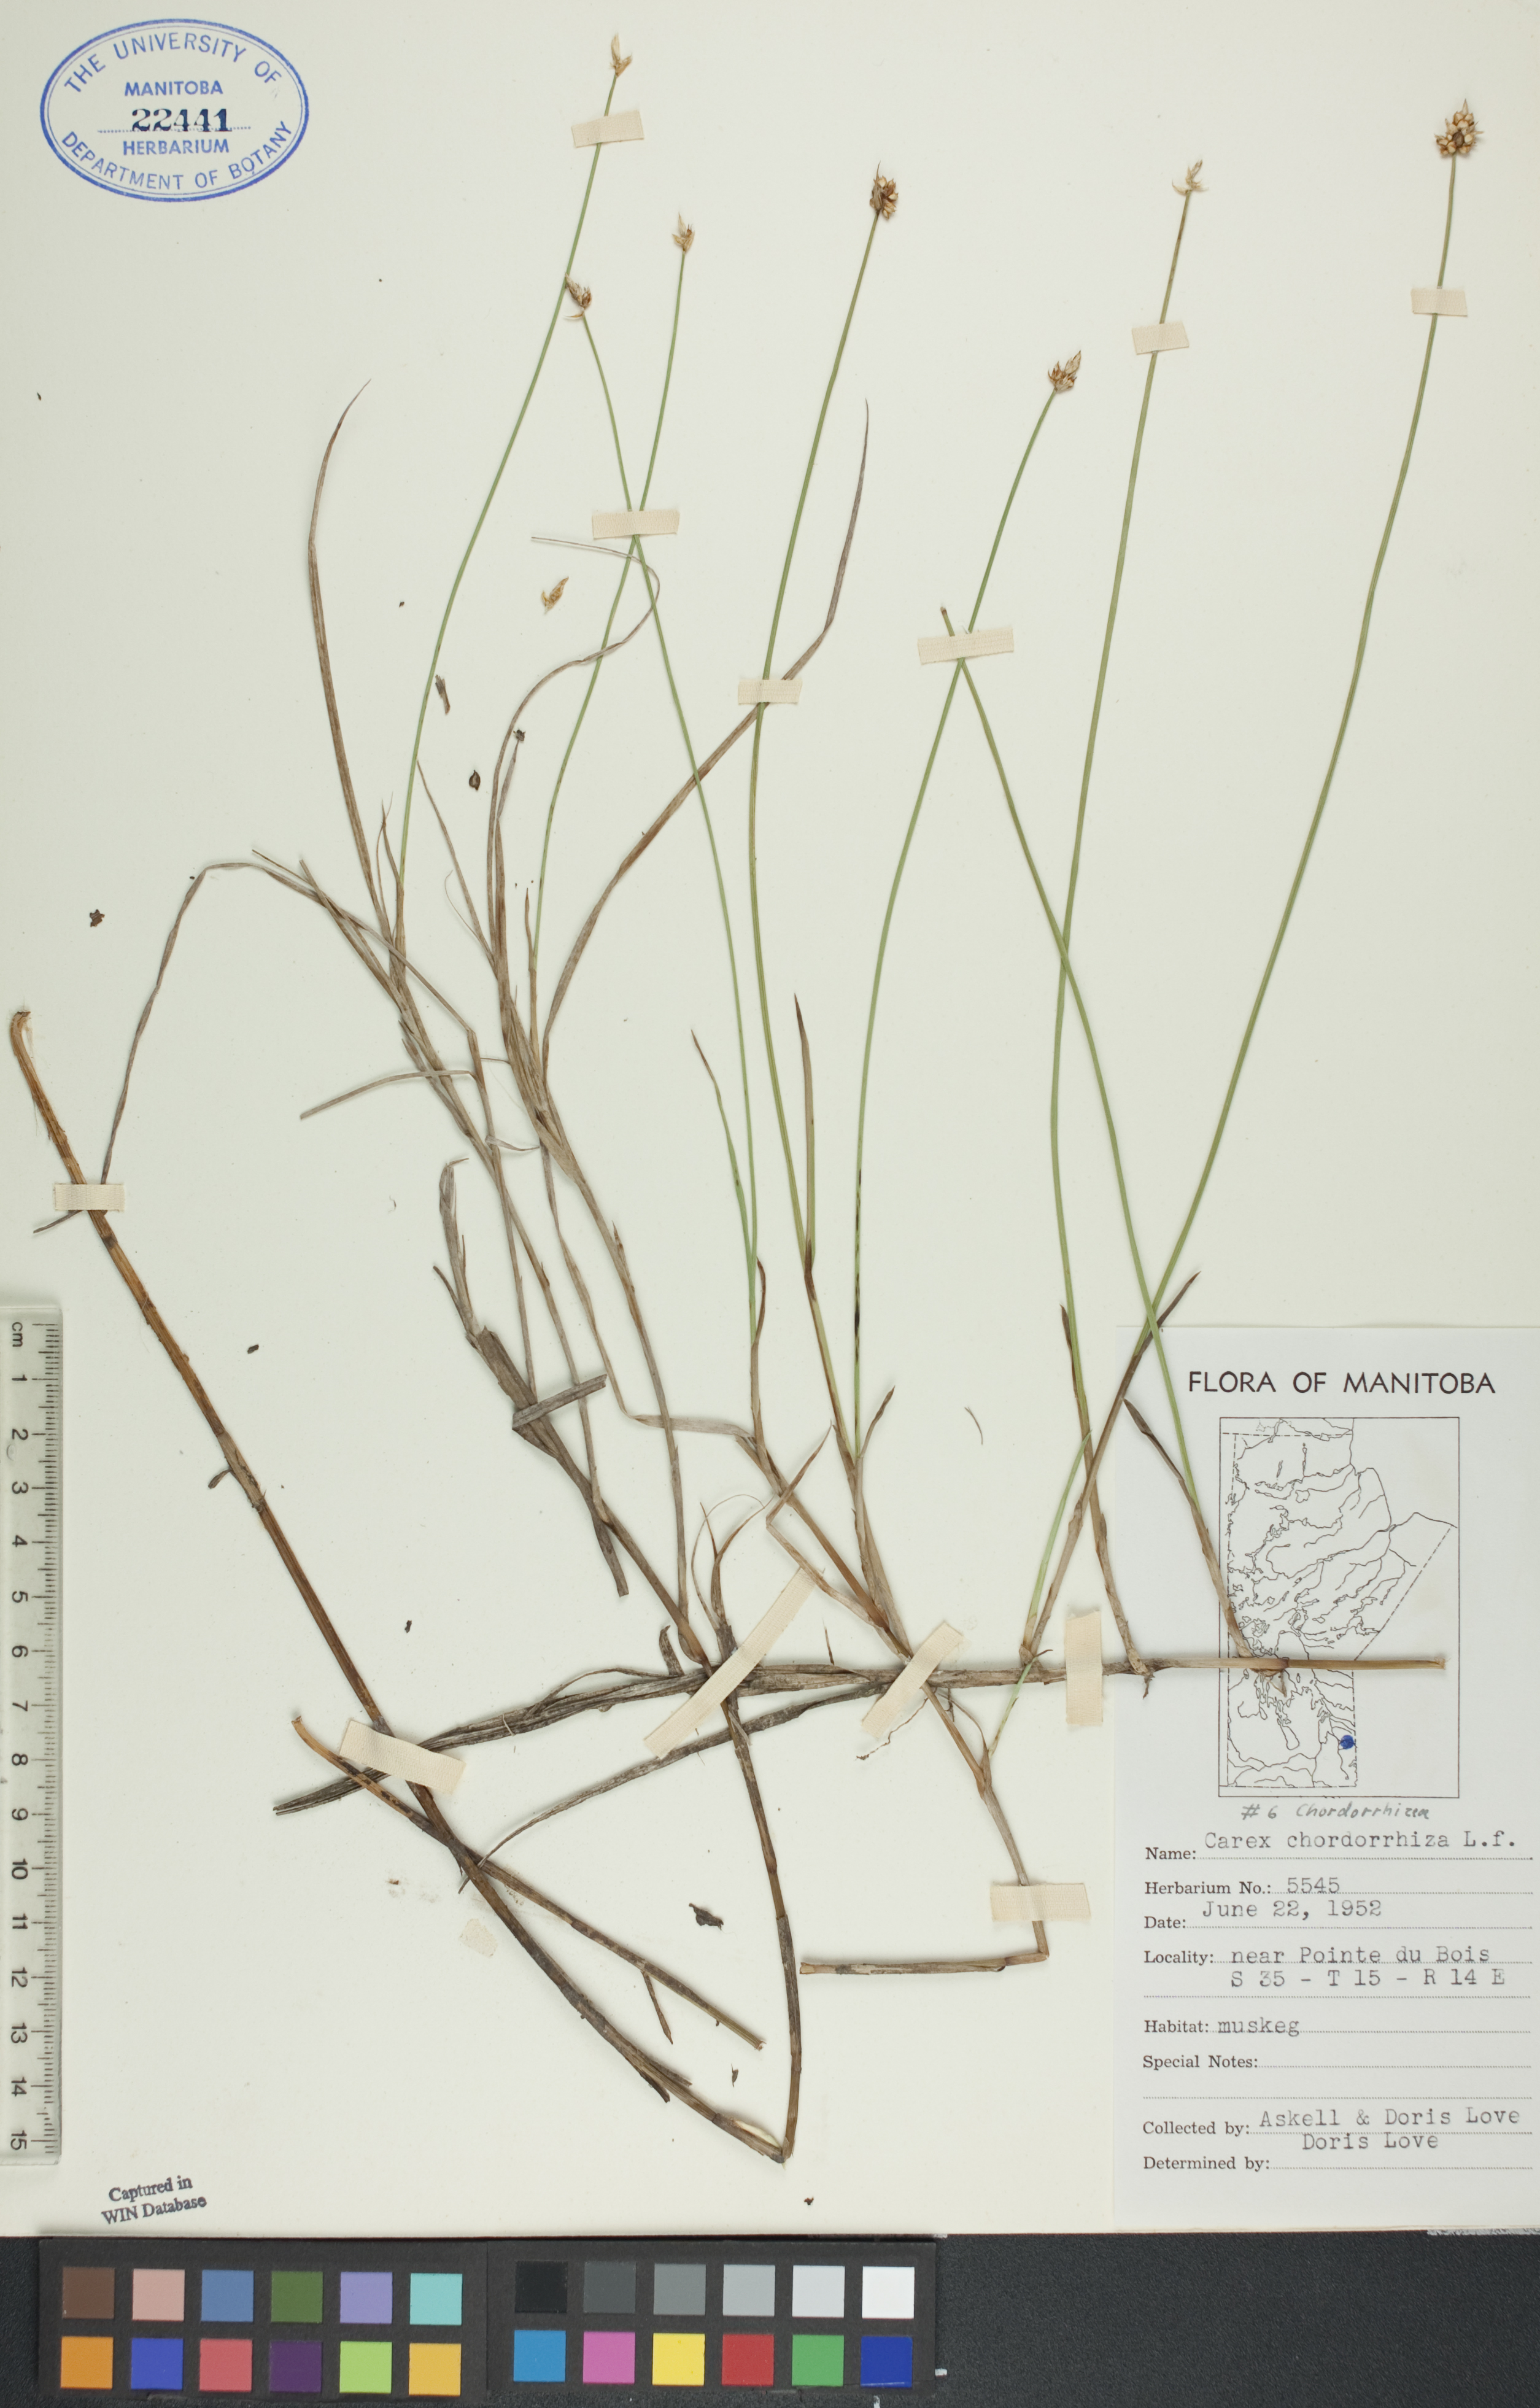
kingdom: Plantae
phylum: Tracheophyta
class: Liliopsida
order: Poales
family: Cyperaceae
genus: Carex
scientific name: Carex chordorrhiza
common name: String sedge
